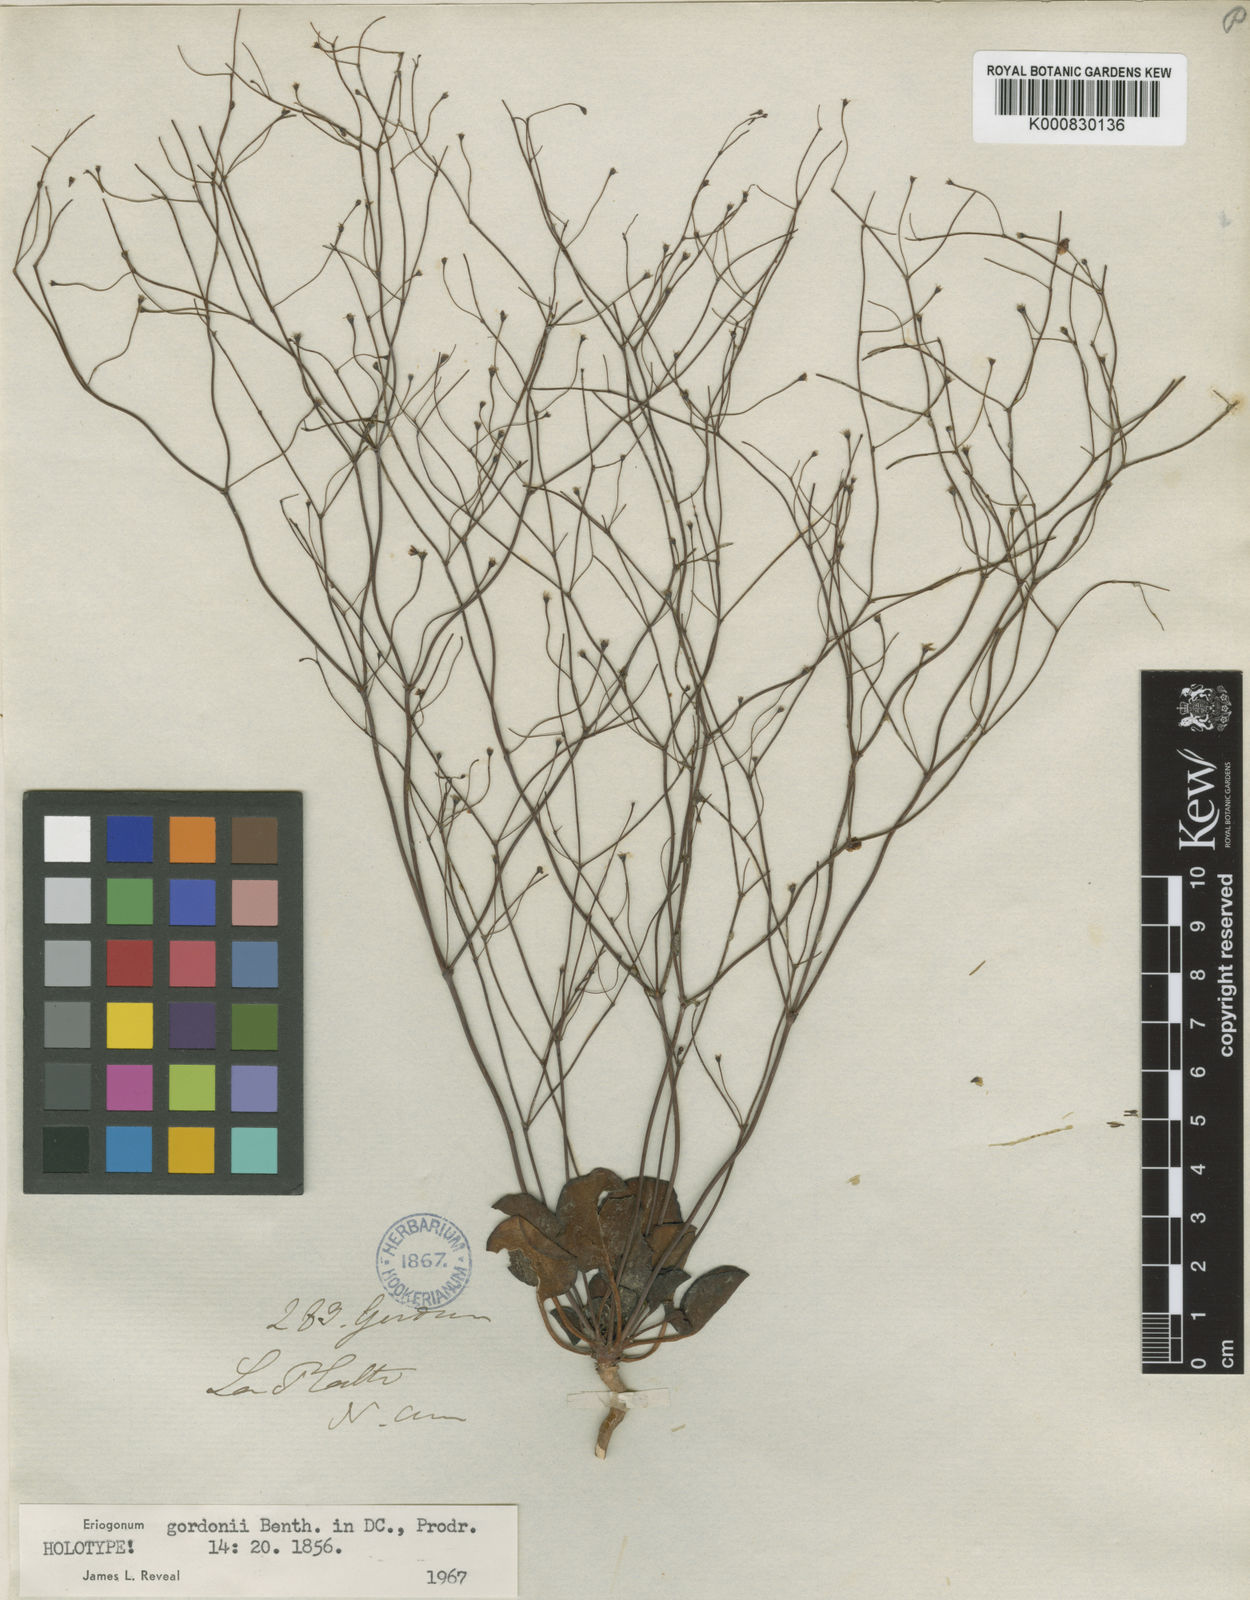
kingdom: Plantae
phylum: Tracheophyta
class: Magnoliopsida
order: Caryophyllales
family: Polygonaceae
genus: Eriogonum
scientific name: Eriogonum gordonii
